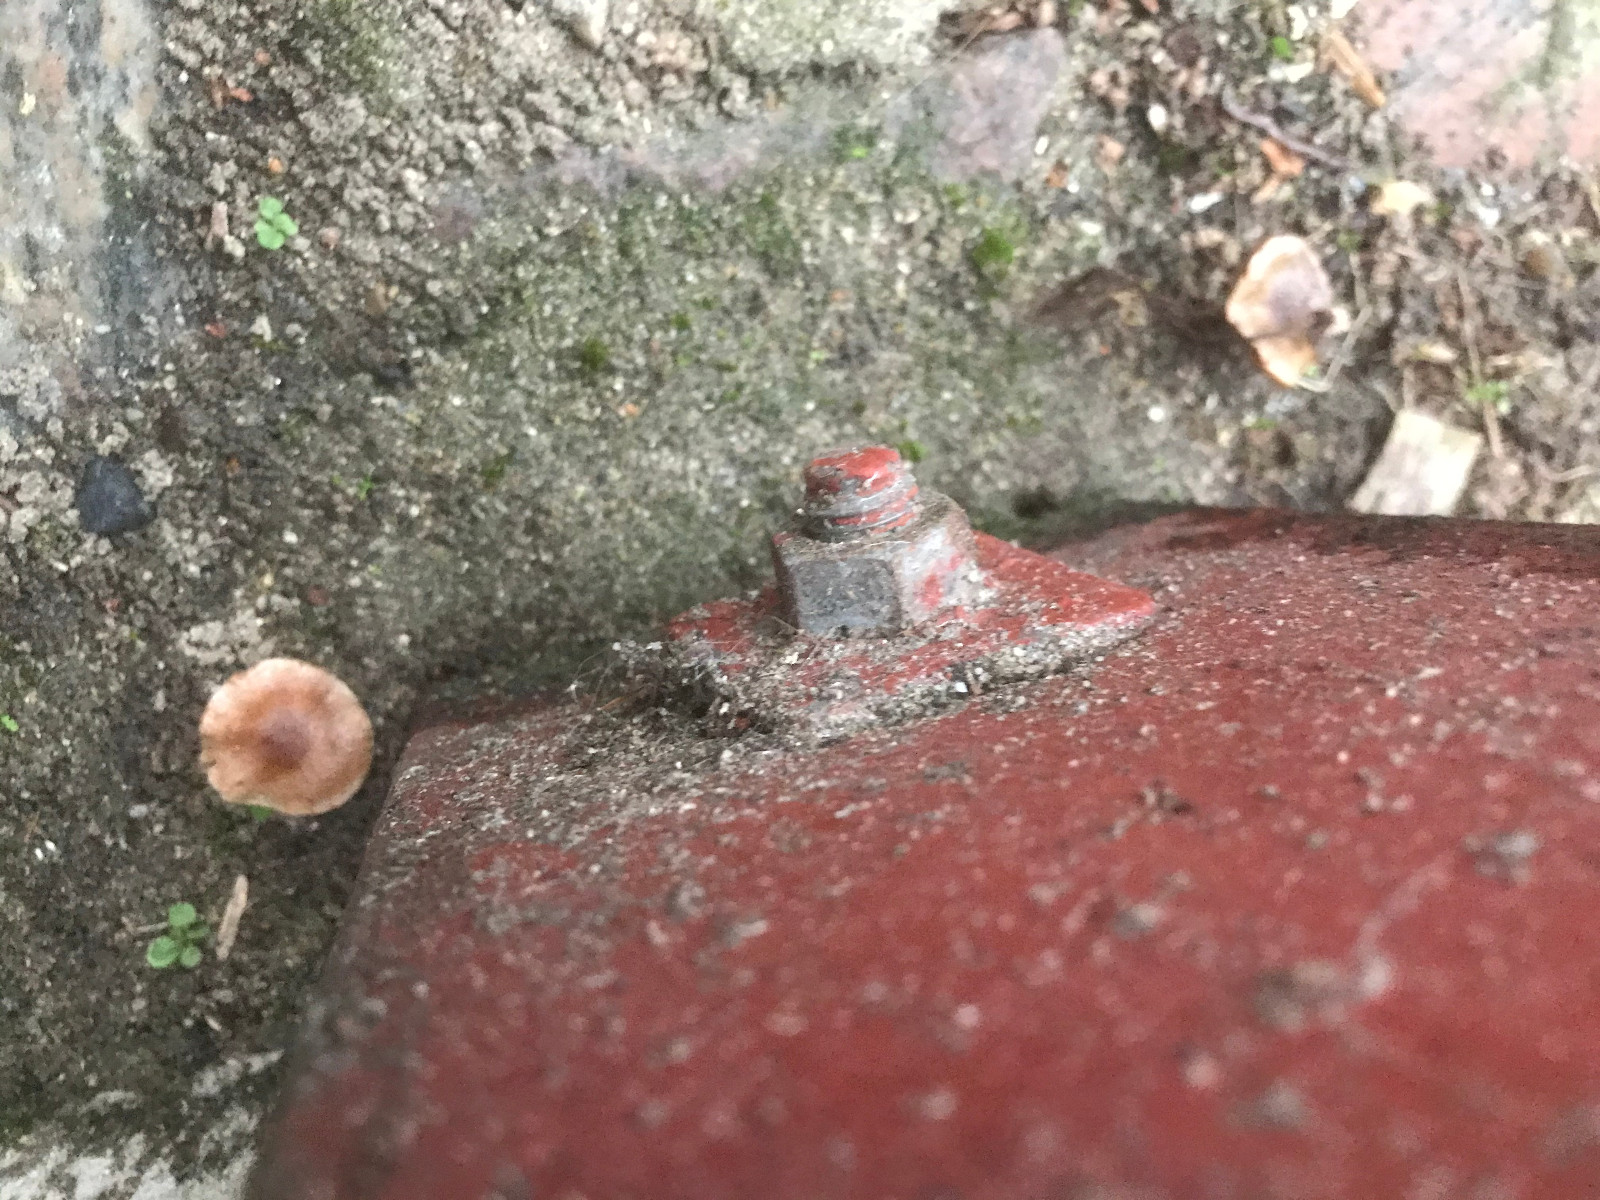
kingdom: Fungi
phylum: Basidiomycota
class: Agaricomycetes
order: Agaricales
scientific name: Agaricales
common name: champignonordenen
